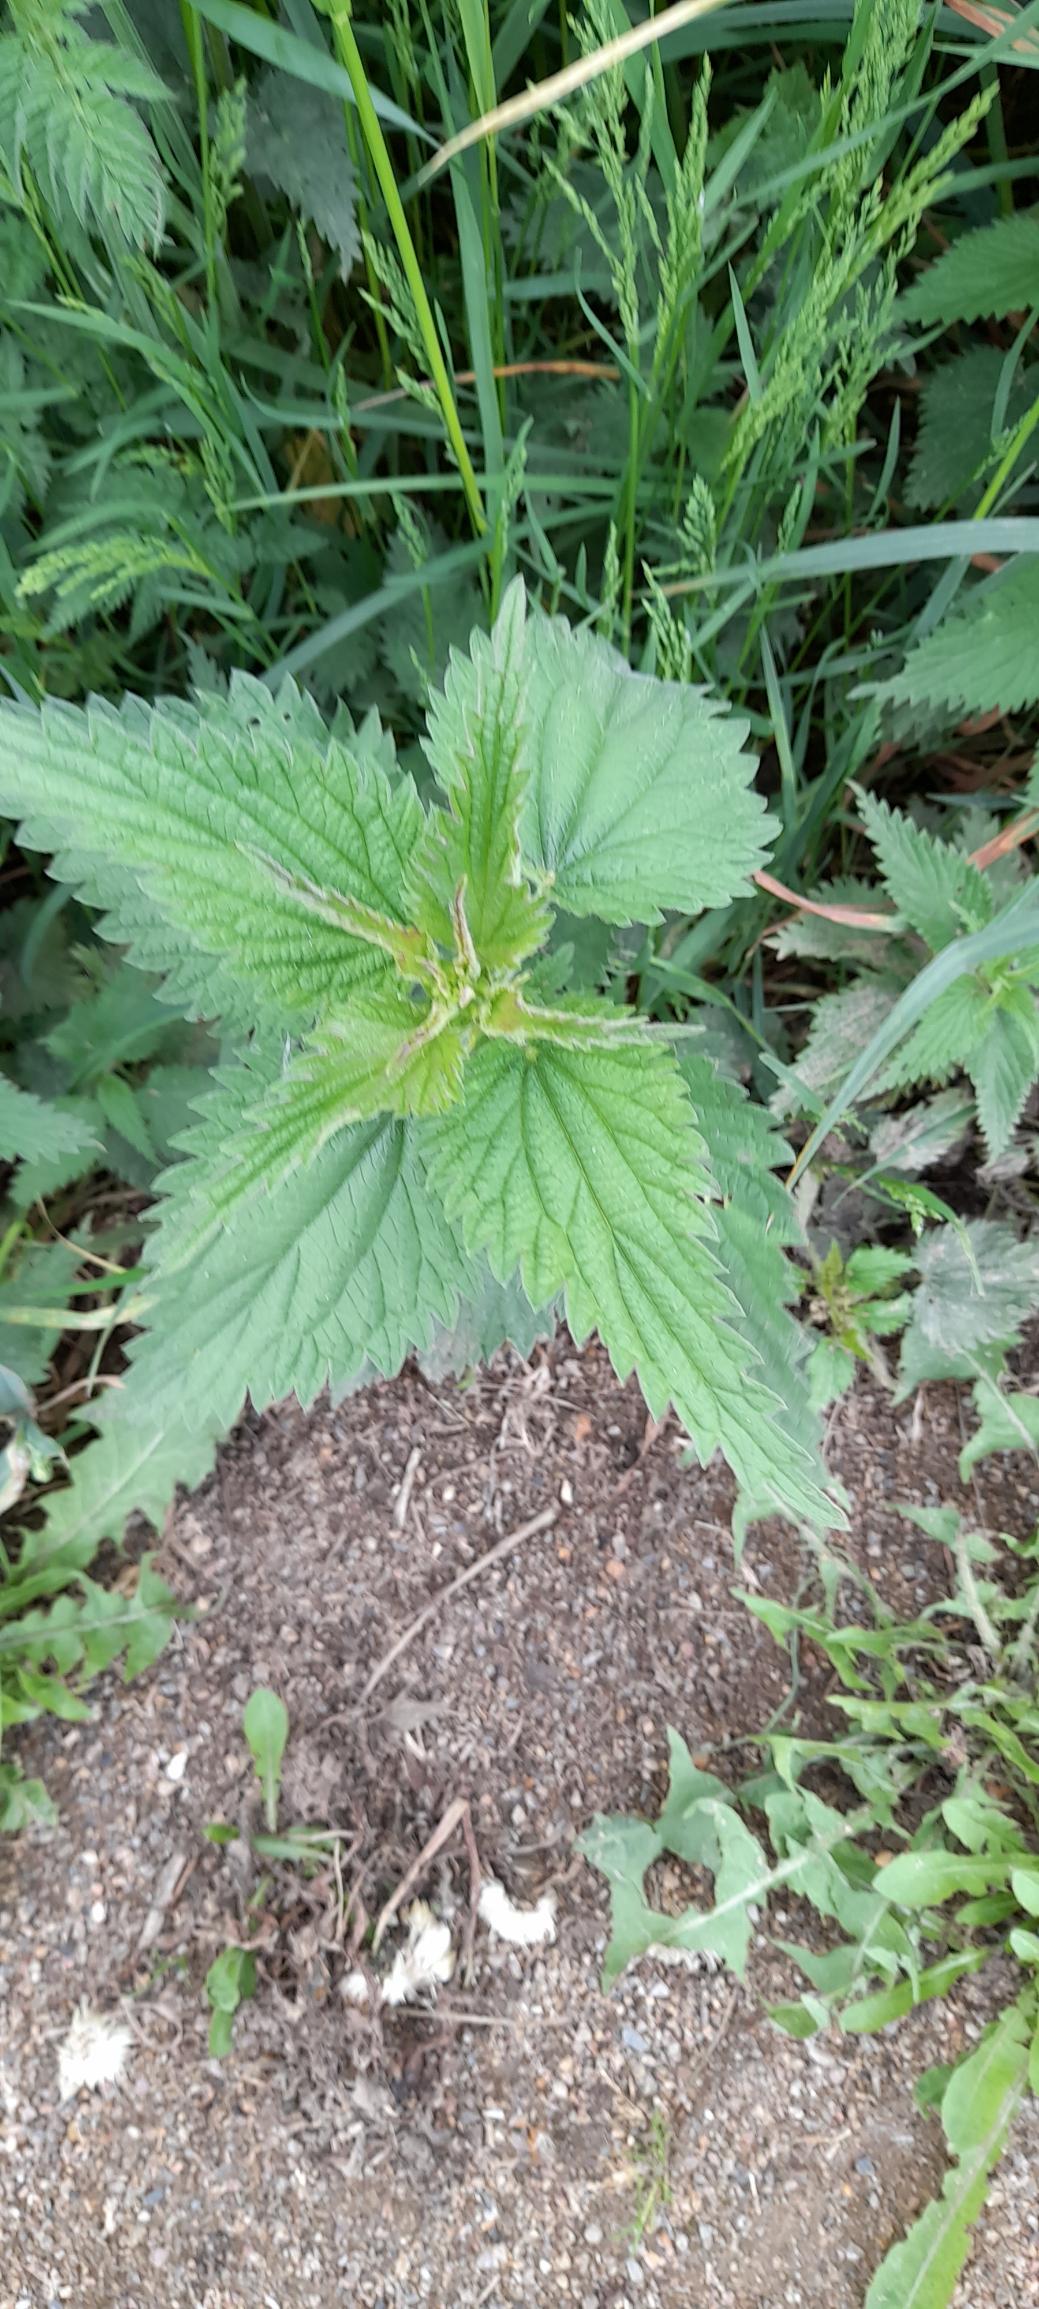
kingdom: Plantae
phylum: Tracheophyta
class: Magnoliopsida
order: Rosales
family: Urticaceae
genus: Urtica
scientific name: Urtica dioica
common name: Stor nælde
